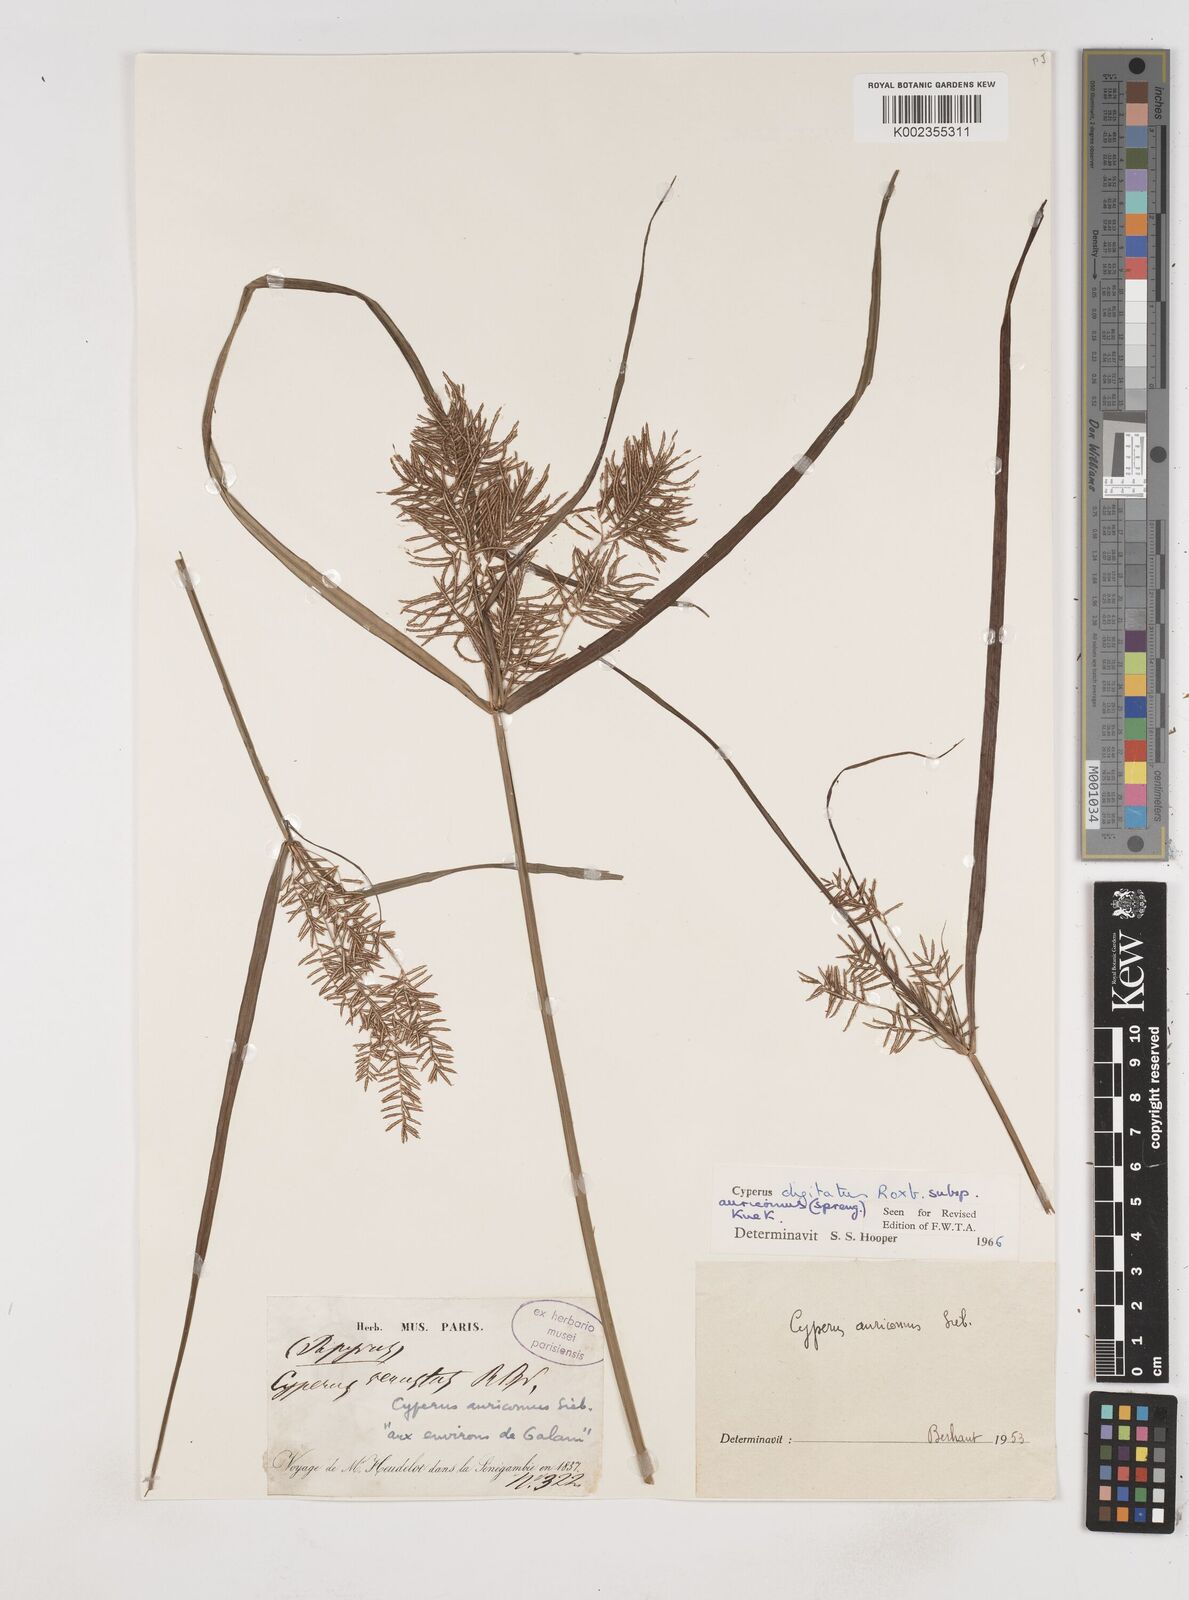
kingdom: Plantae
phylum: Tracheophyta
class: Liliopsida
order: Poales
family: Cyperaceae
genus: Cyperus
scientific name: Cyperus digitatus
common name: Finger flatsedge
